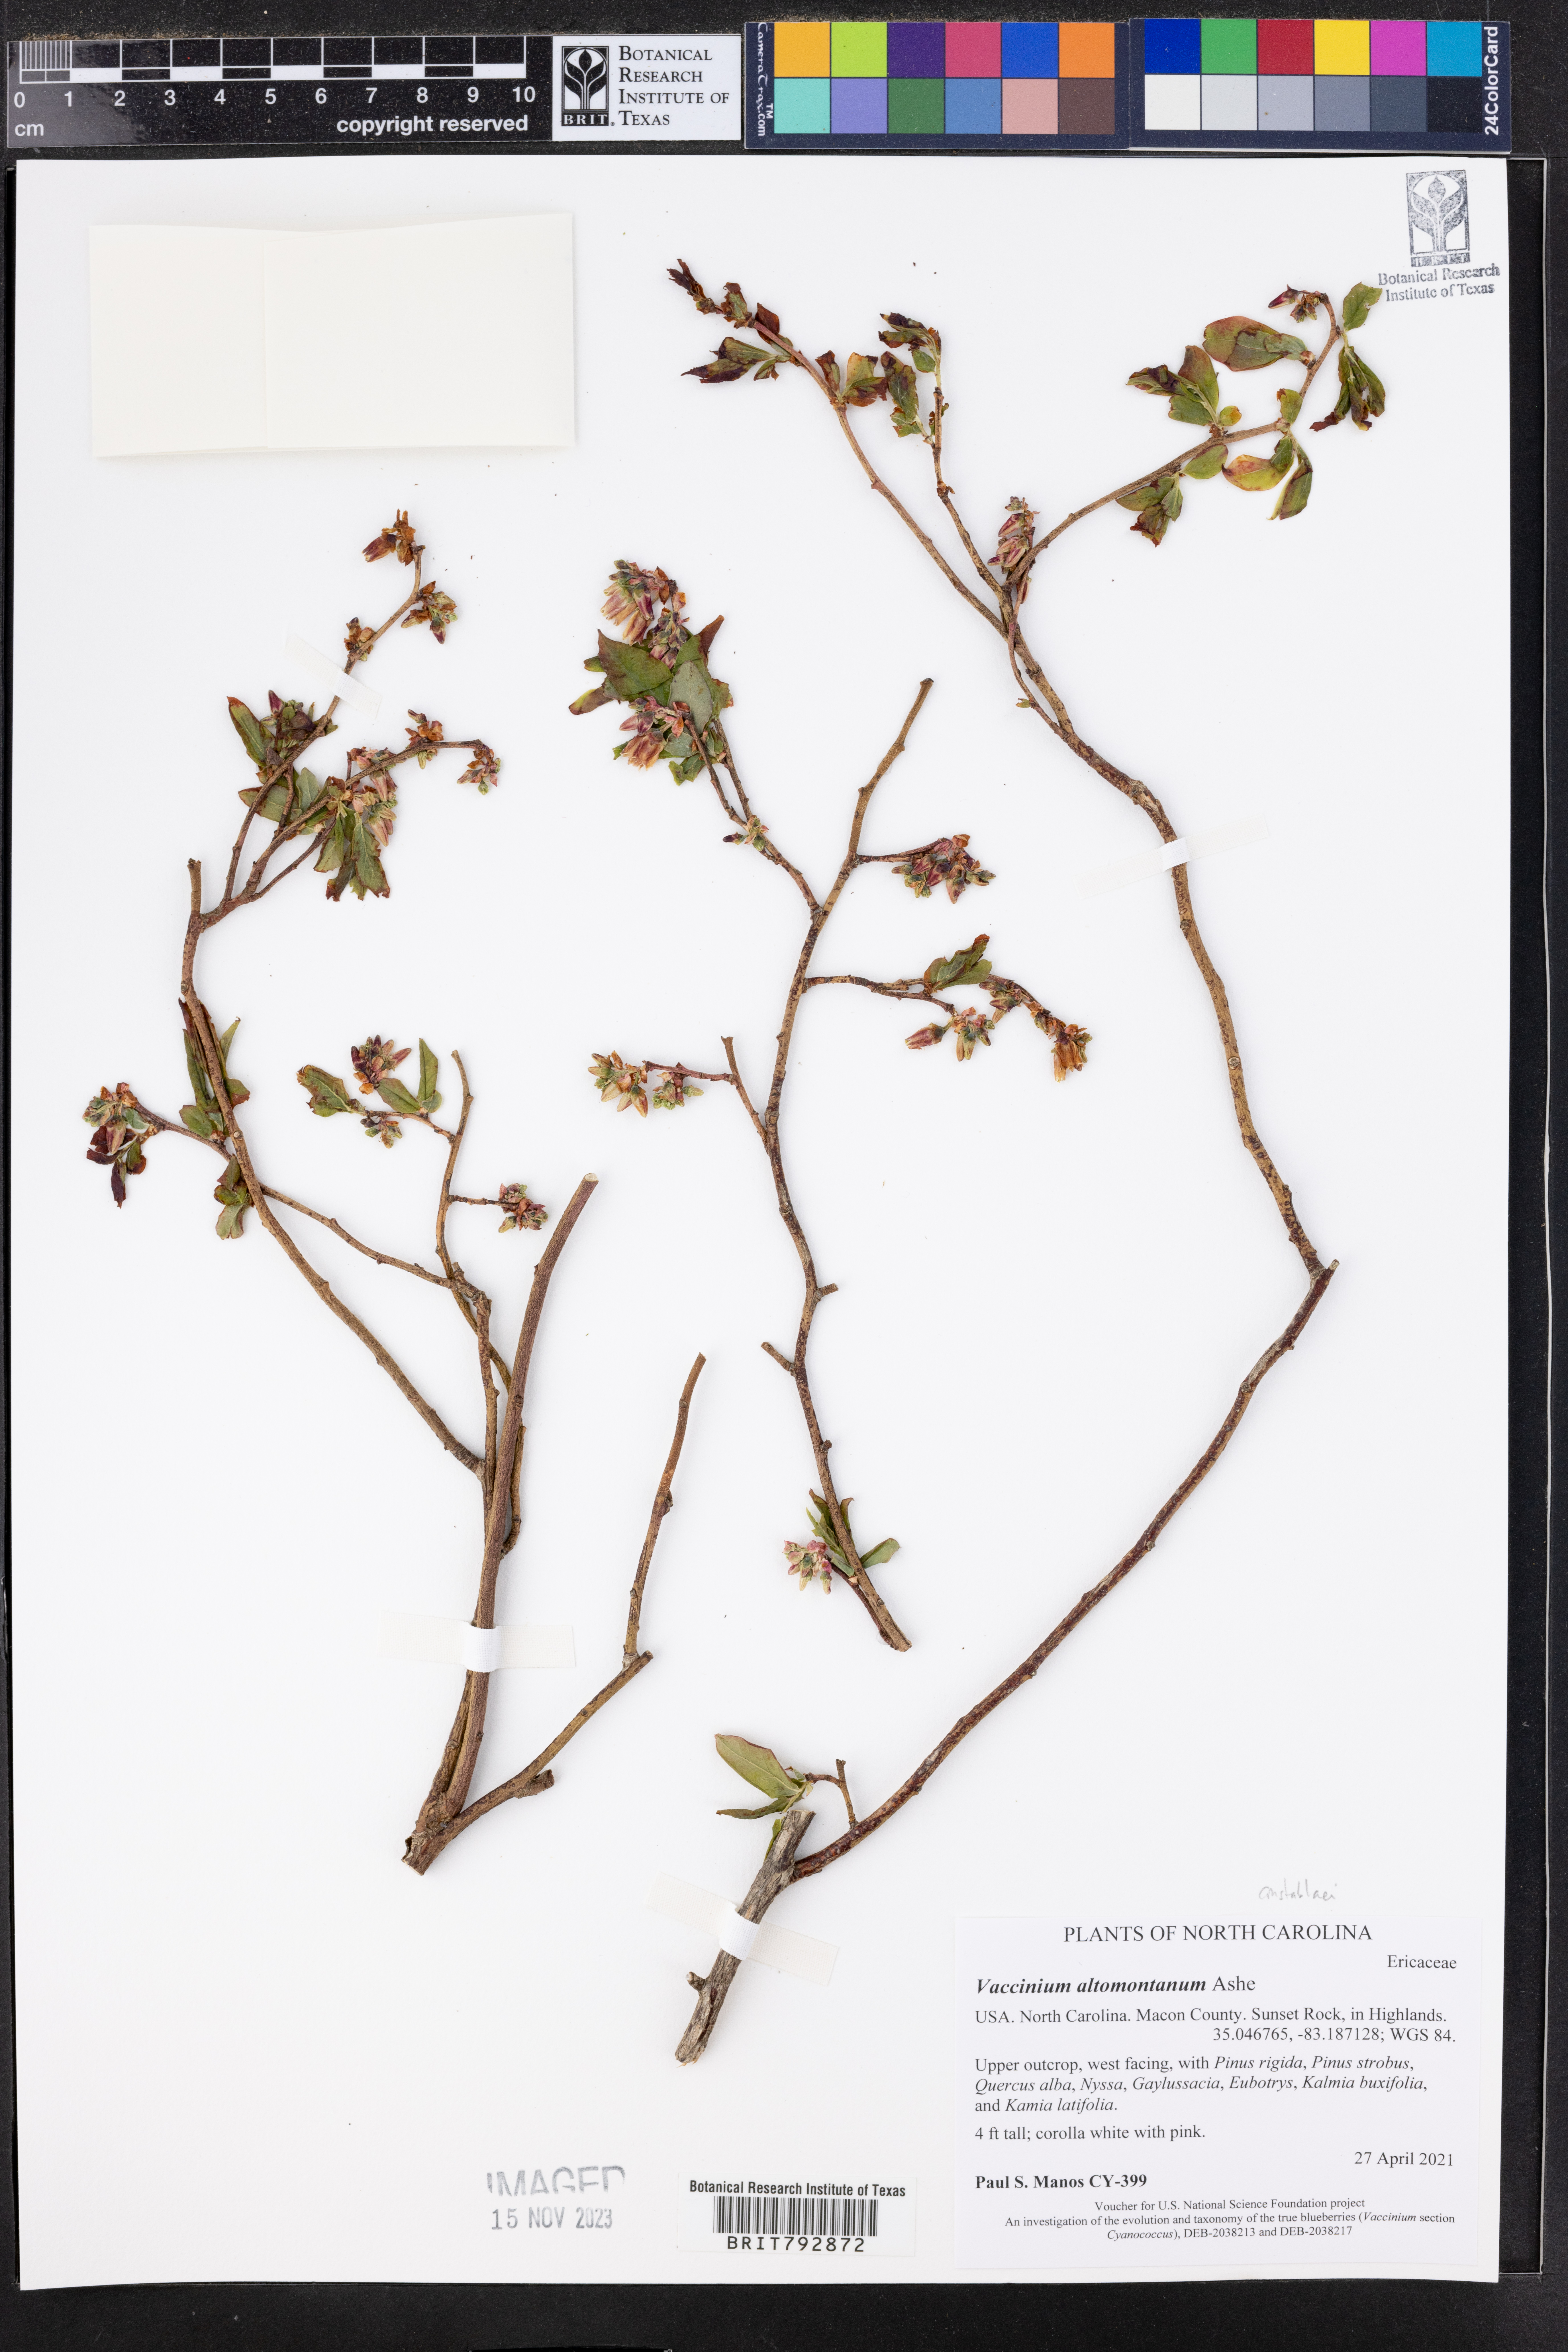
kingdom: Plantae
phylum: Tracheophyta
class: Magnoliopsida
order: Ericales
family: Ericaceae
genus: Vaccinium
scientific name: Vaccinium pallidum
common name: Blue ridge blueberry
